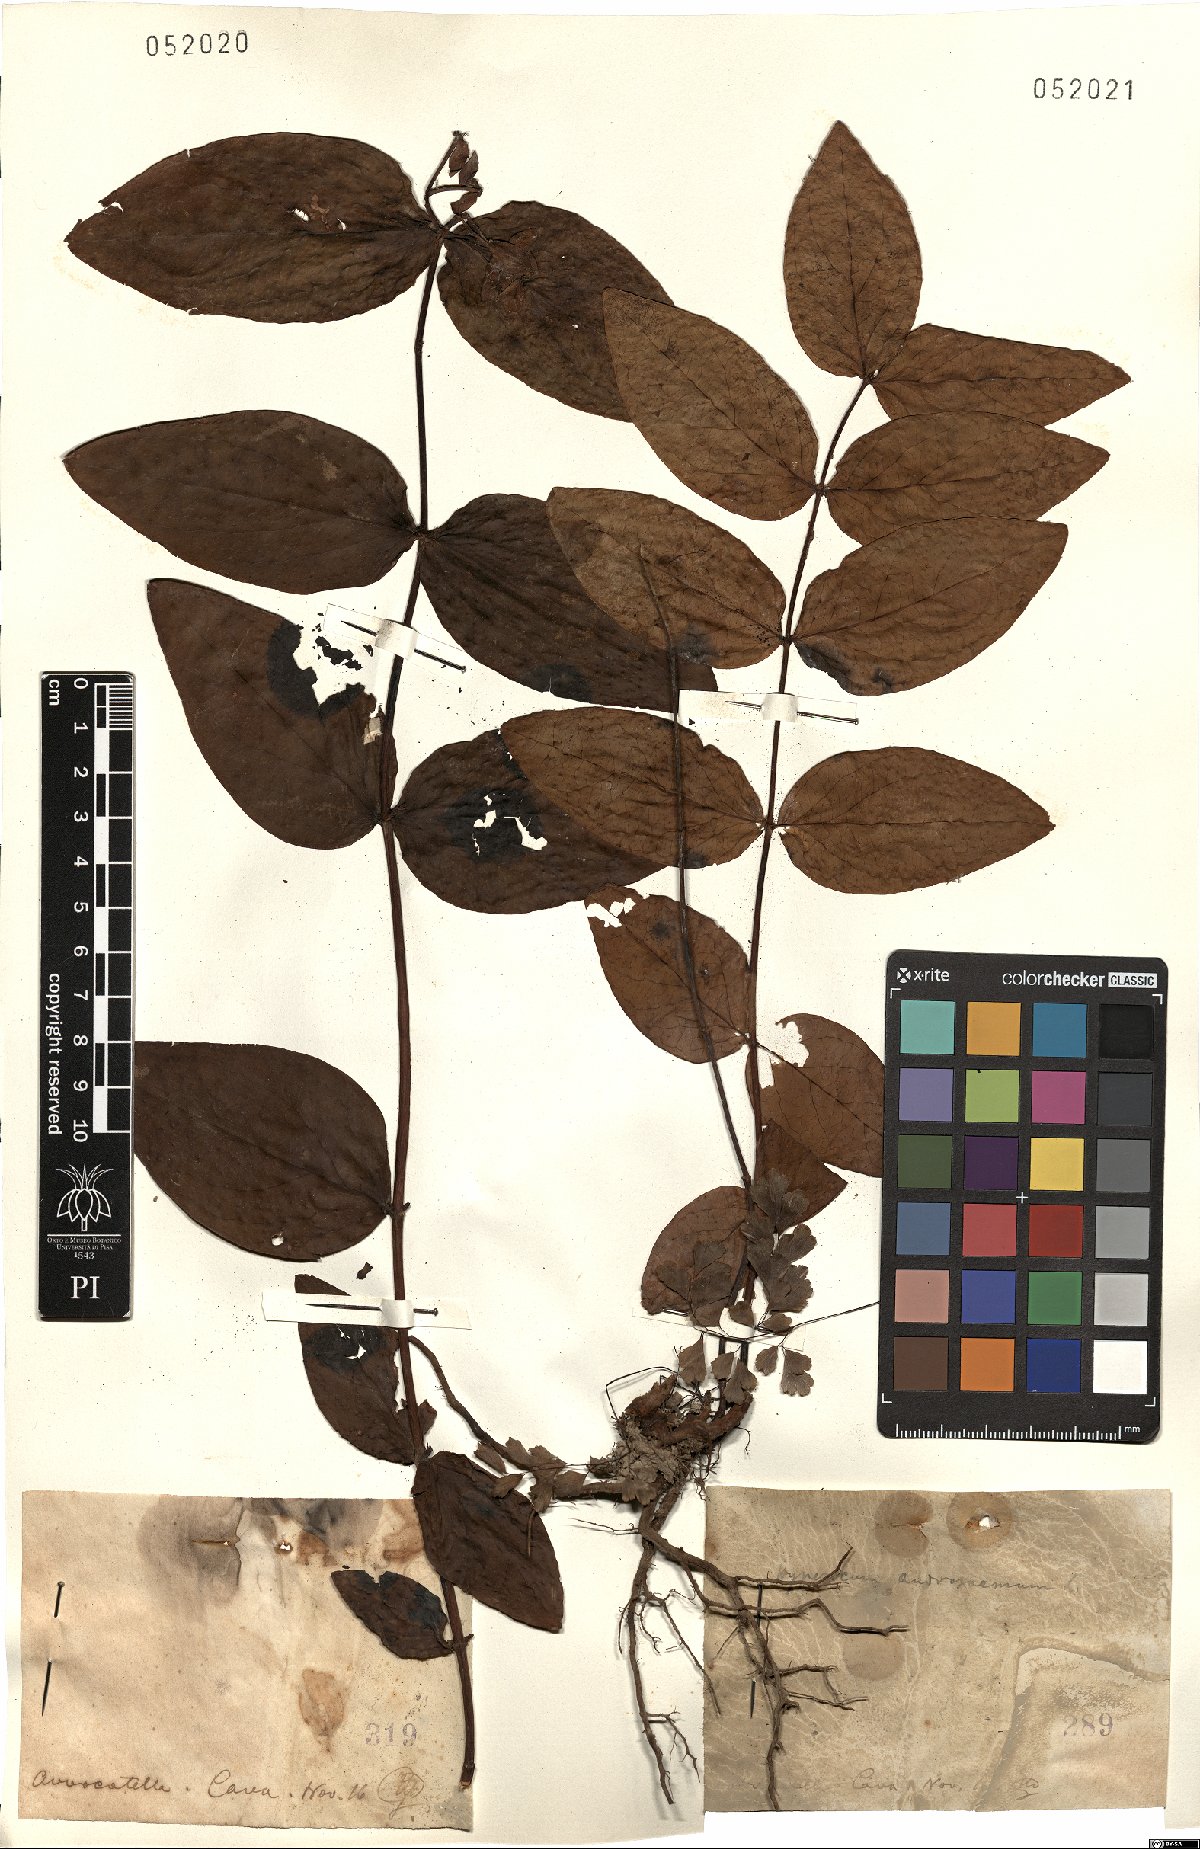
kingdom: Plantae
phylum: Tracheophyta
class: Magnoliopsida
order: Malpighiales
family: Hypericaceae
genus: Hypericum
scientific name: Hypericum
